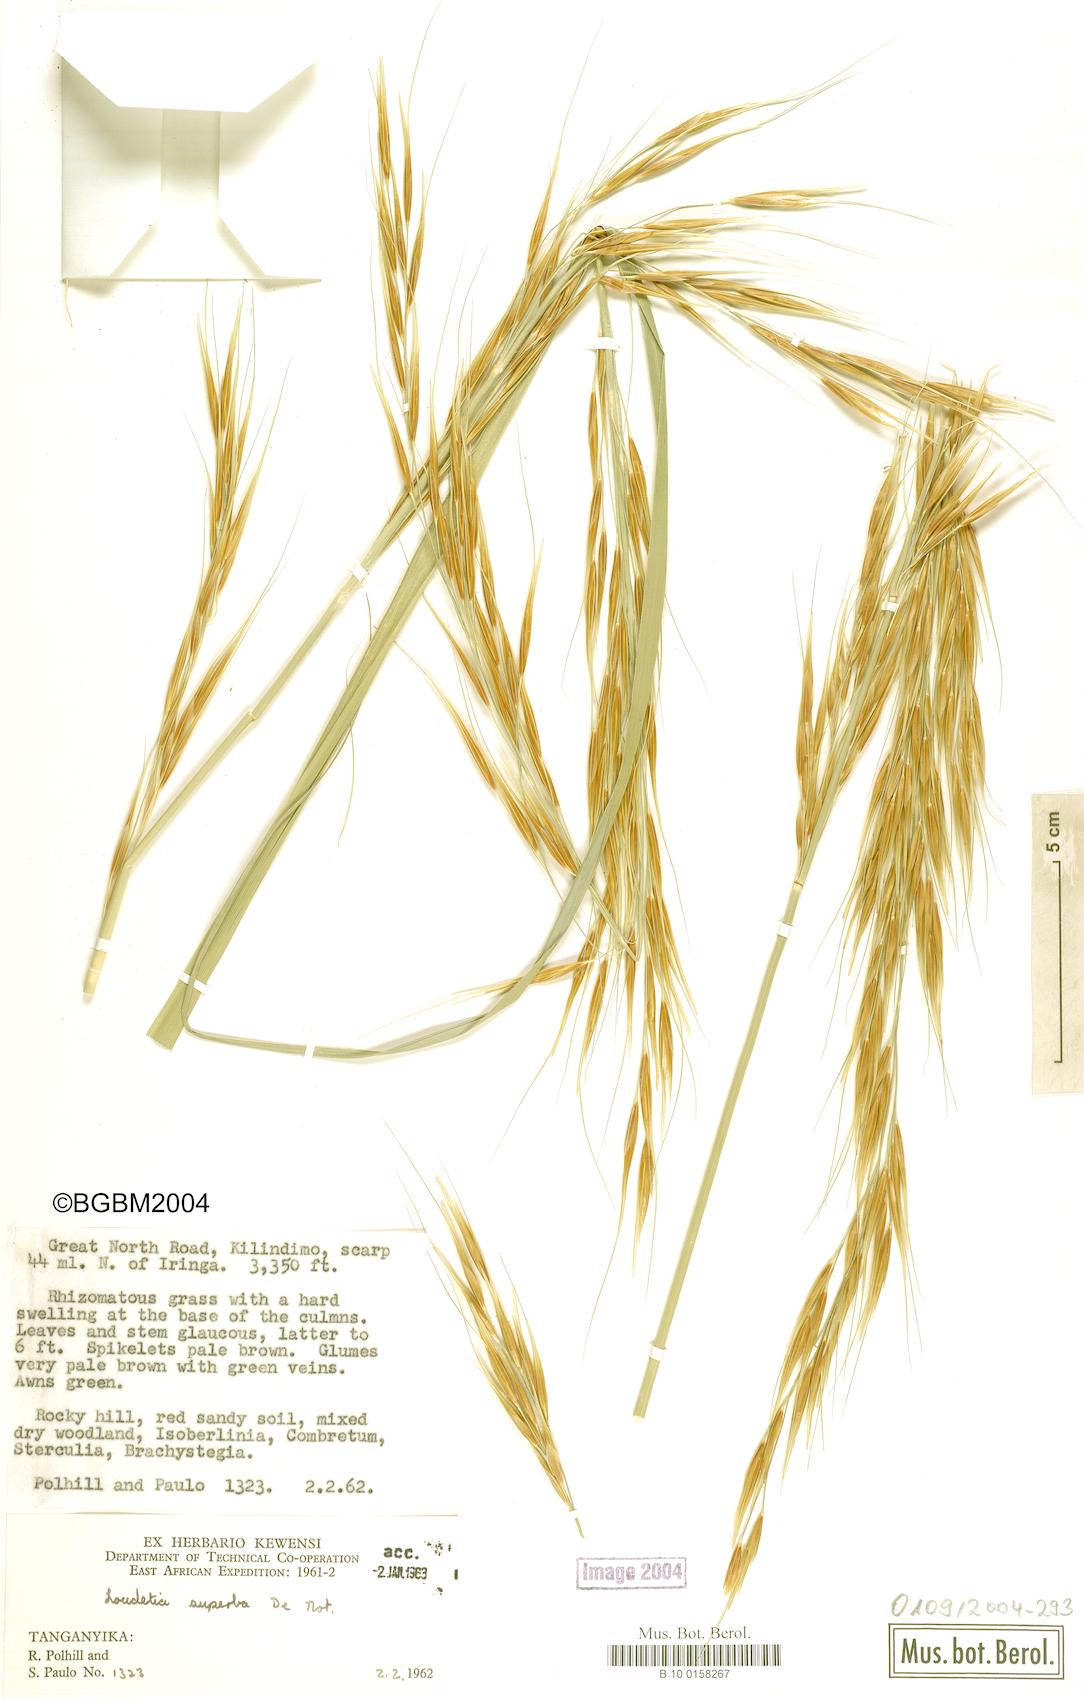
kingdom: Plantae
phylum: Tracheophyta
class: Liliopsida
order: Poales
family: Poaceae
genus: Tristachya
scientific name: Tristachya superba
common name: Giant trident grass
